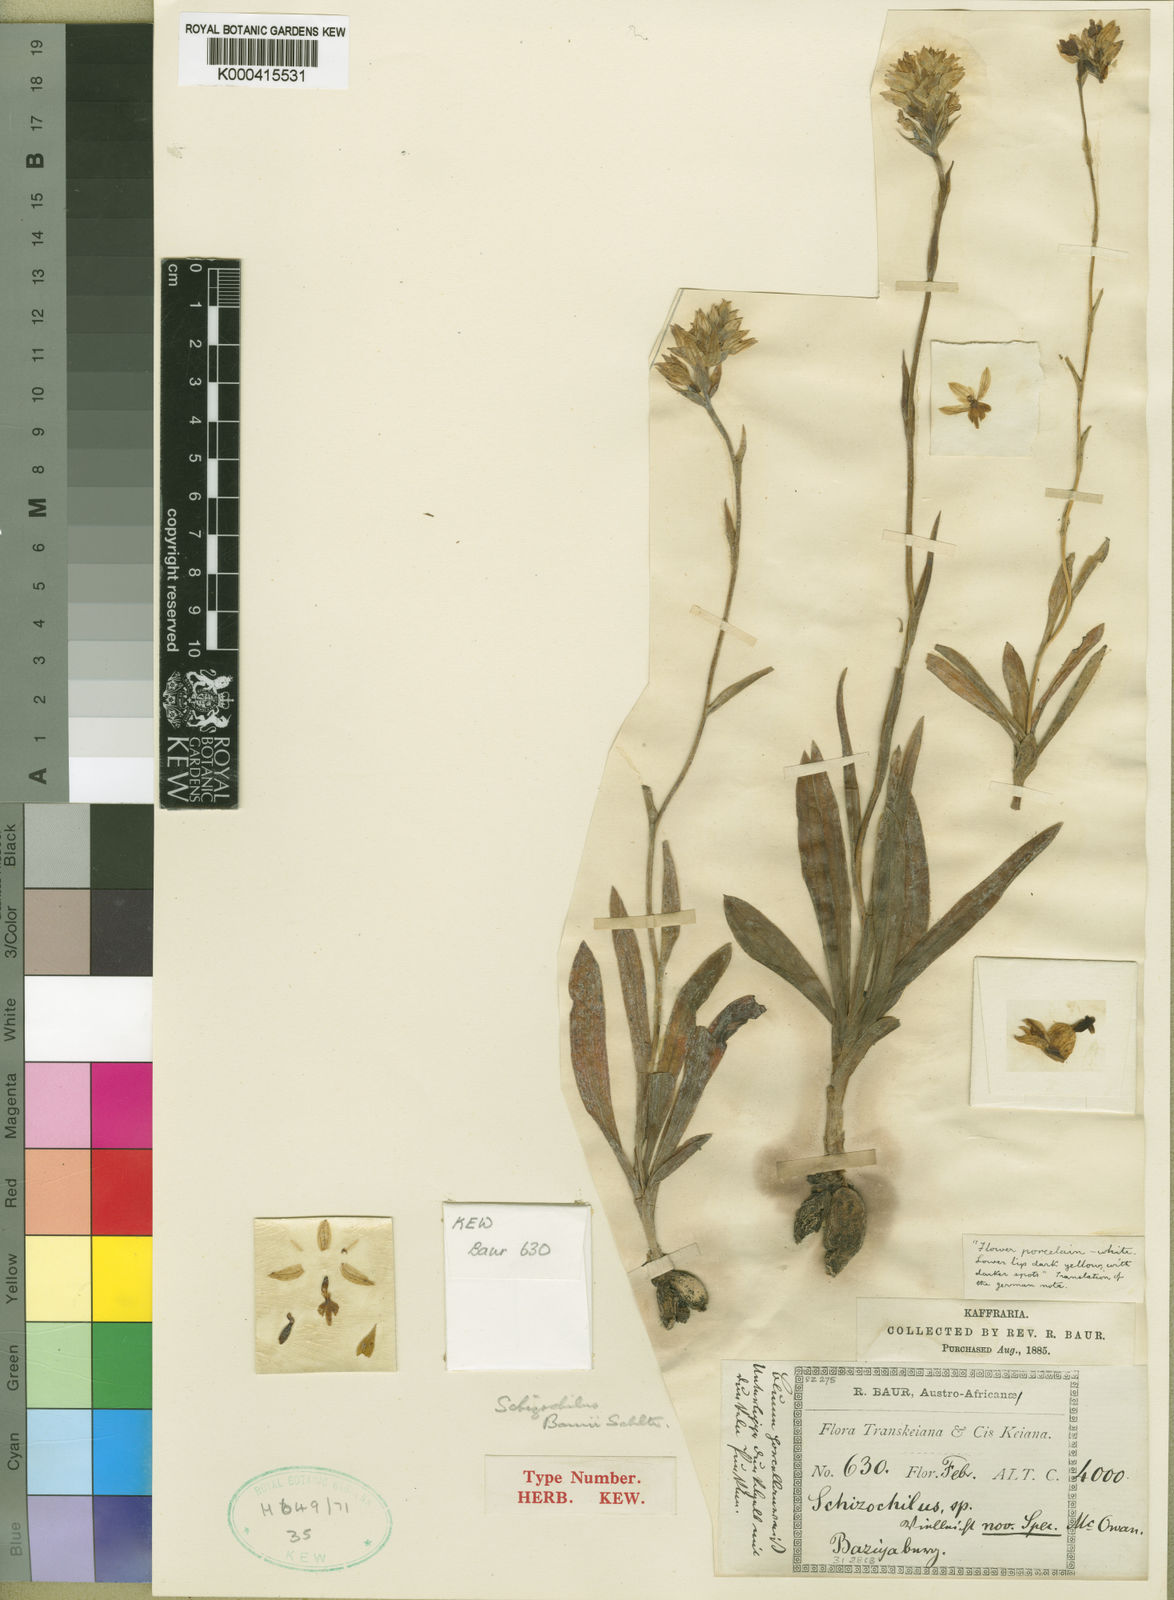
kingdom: Plantae
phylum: Tracheophyta
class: Liliopsida
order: Asparagales
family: Orchidaceae
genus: Schizochilus
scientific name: Schizochilus flexuosus
